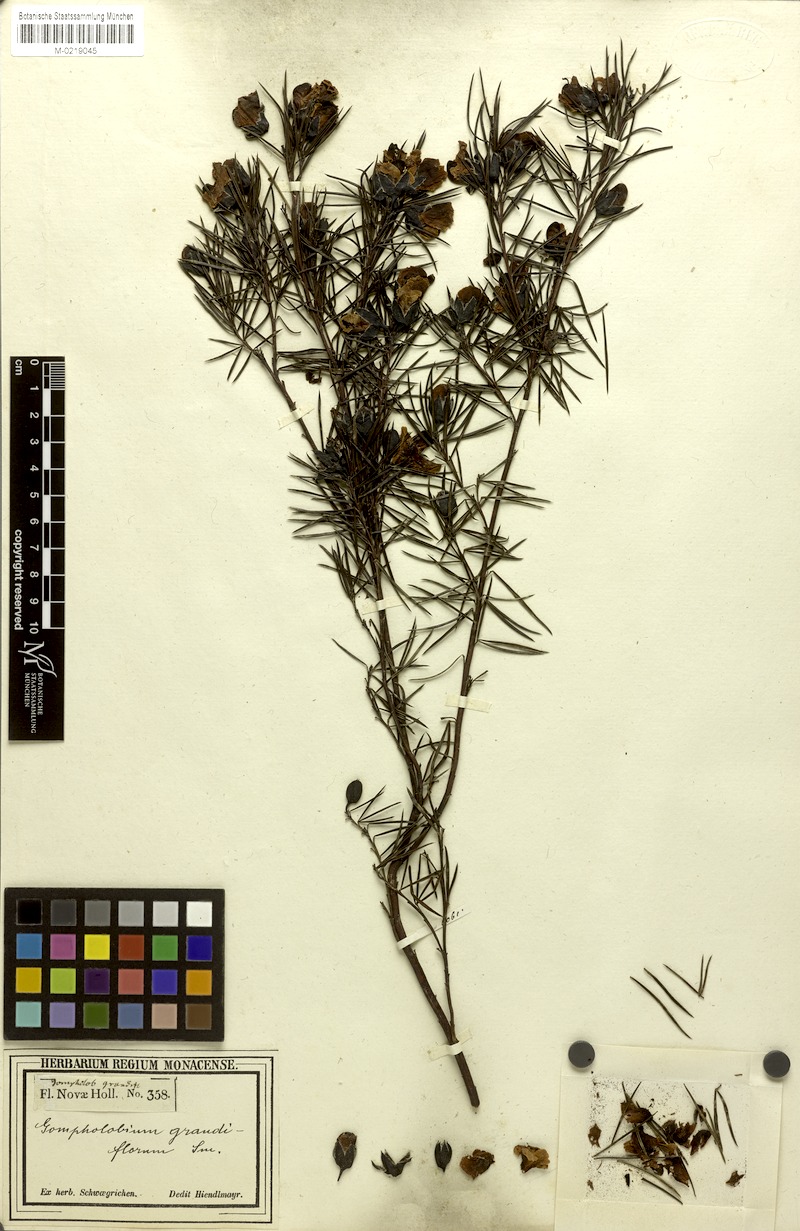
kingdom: Plantae
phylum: Tracheophyta
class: Magnoliopsida
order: Fabales
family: Fabaceae
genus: Gompholobium
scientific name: Gompholobium grandiflorum
